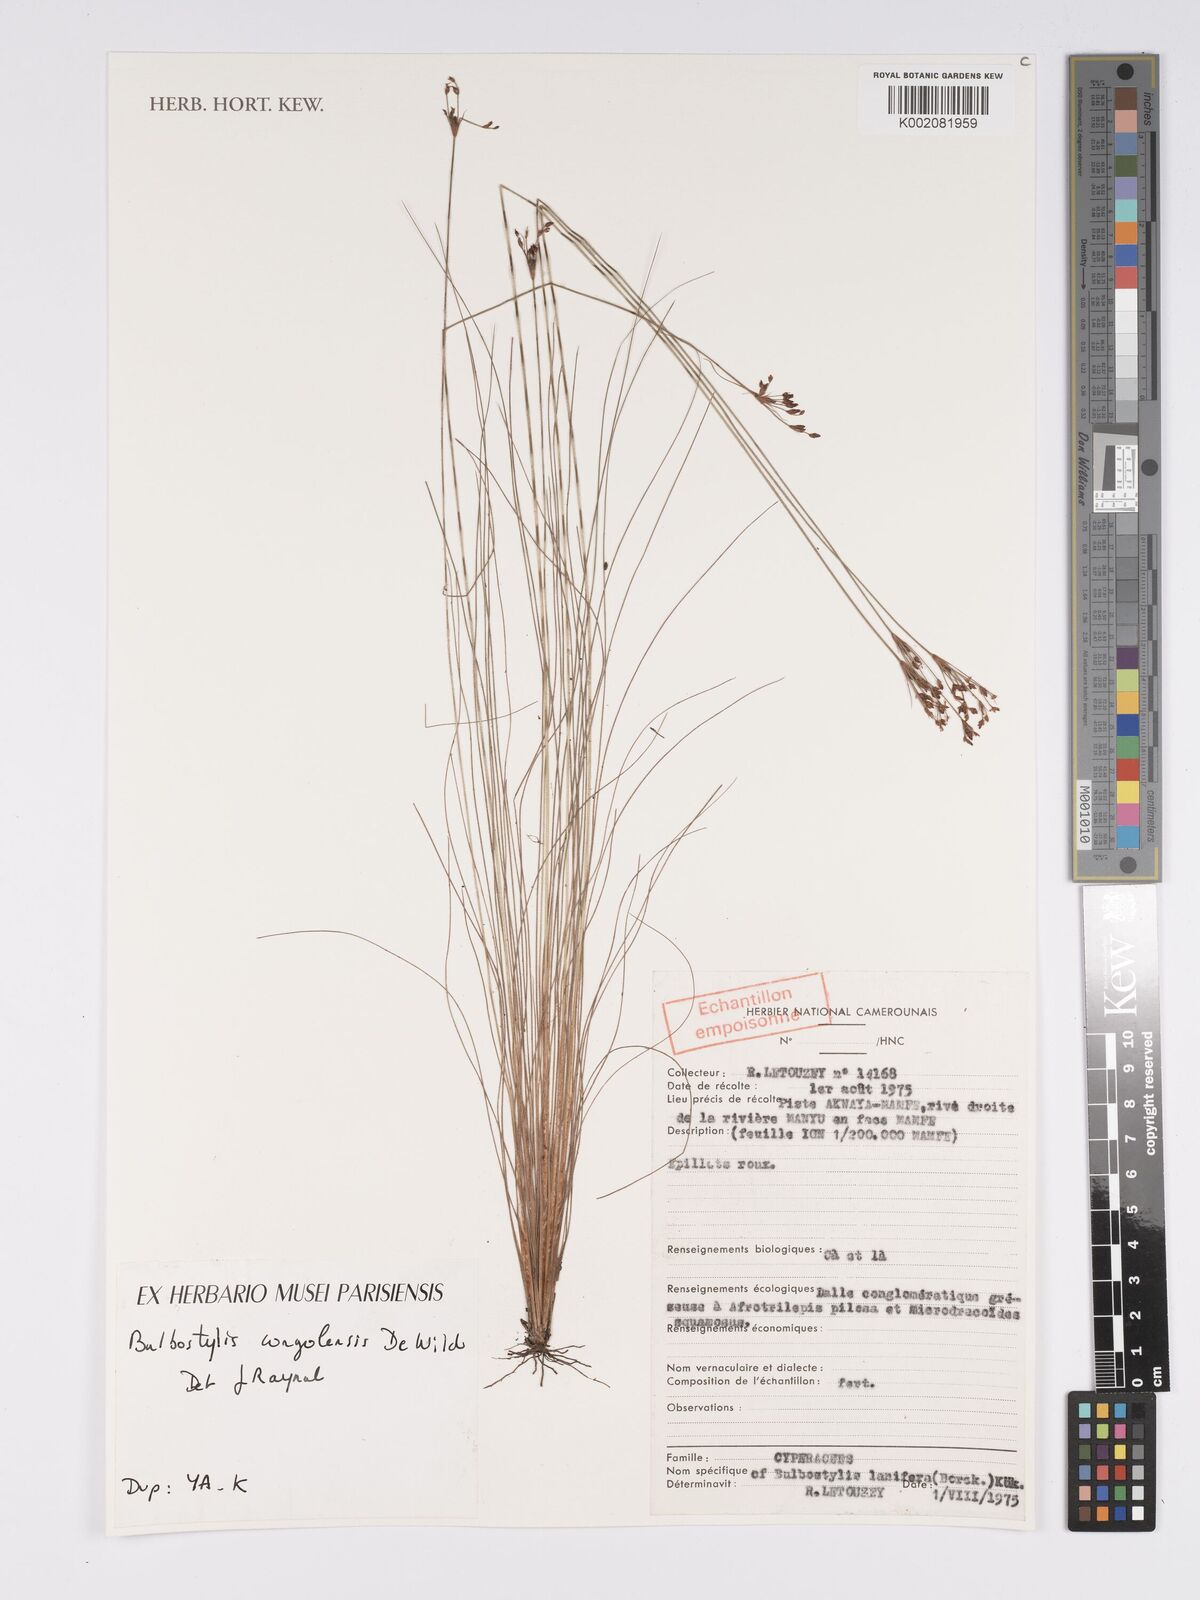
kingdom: Plantae
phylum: Tracheophyta
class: Liliopsida
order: Poales
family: Cyperaceae
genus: Bulbostylis
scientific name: Bulbostylis wombaliensis
